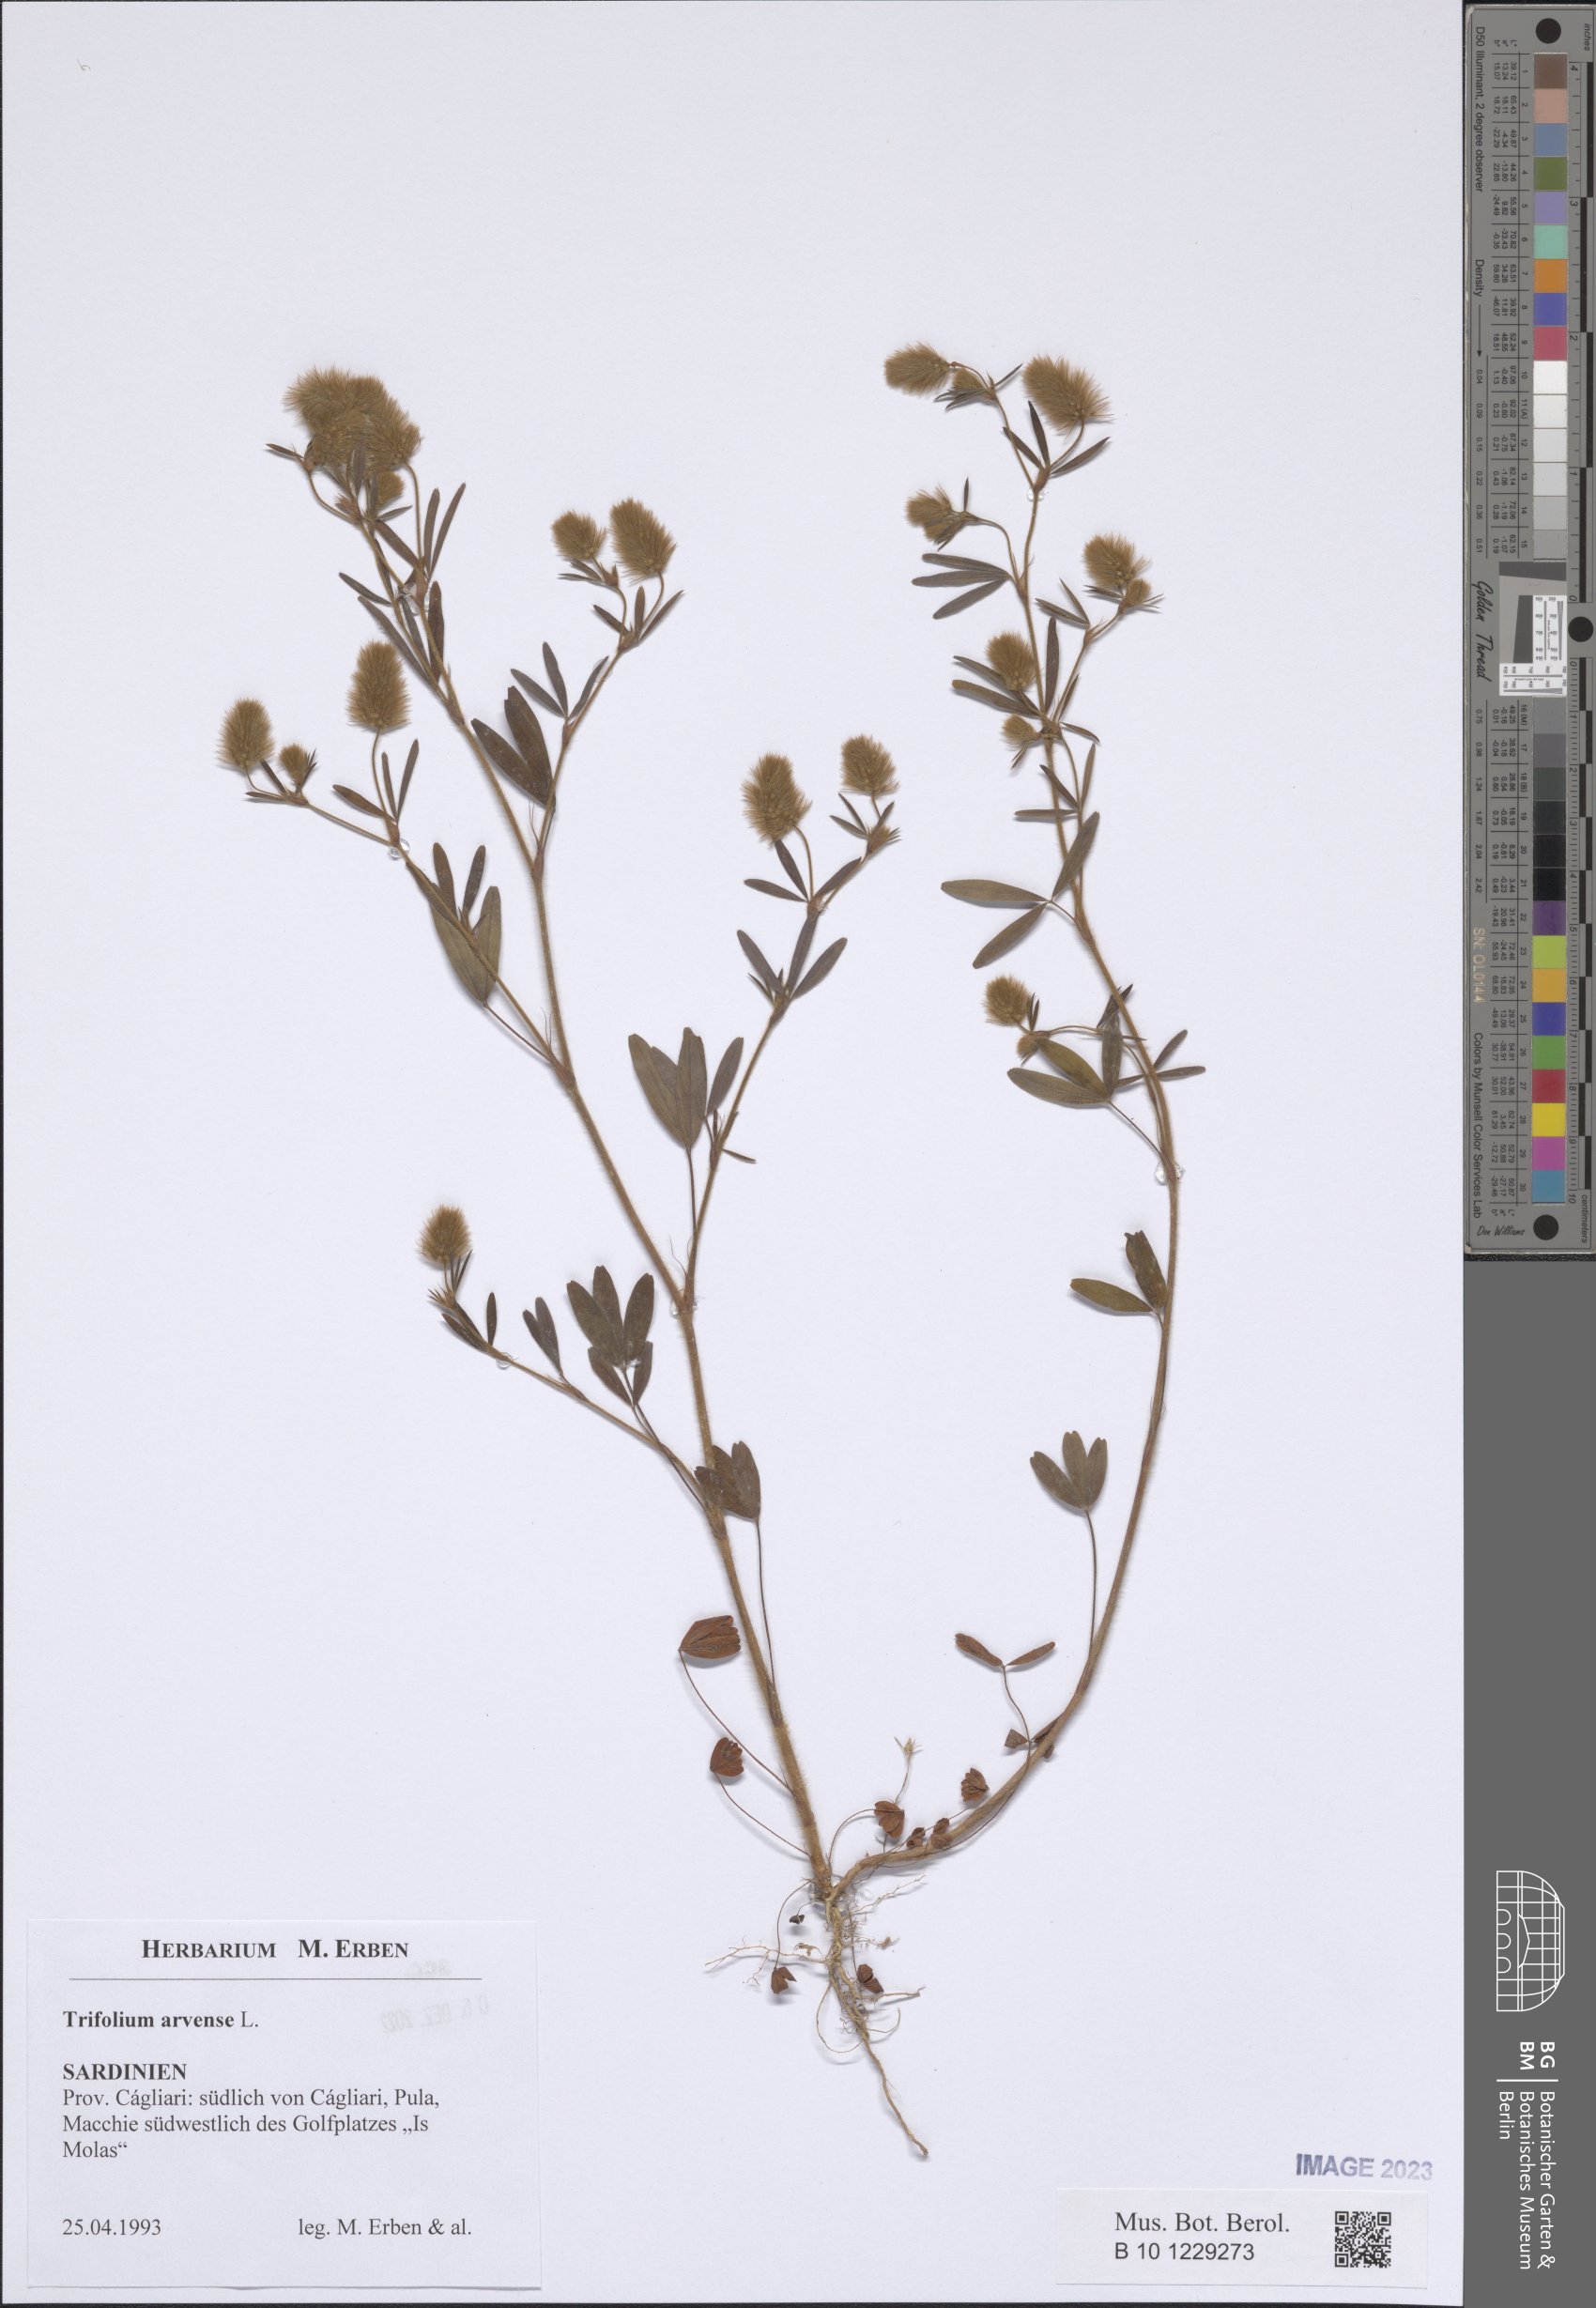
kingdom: Plantae
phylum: Tracheophyta
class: Magnoliopsida
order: Fabales
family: Fabaceae
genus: Trifolium
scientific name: Trifolium arvense
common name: Hare's-foot clover
